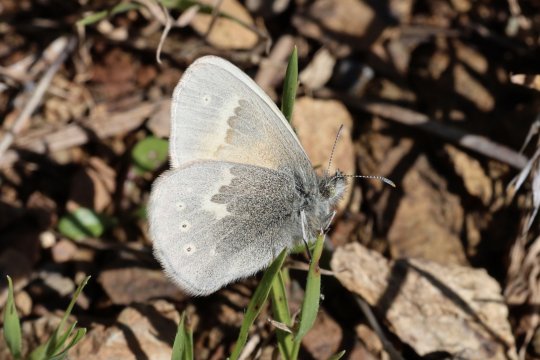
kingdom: Animalia
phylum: Arthropoda
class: Insecta
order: Lepidoptera
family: Nymphalidae
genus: Coenonympha
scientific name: Coenonympha california
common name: California Ringlet
